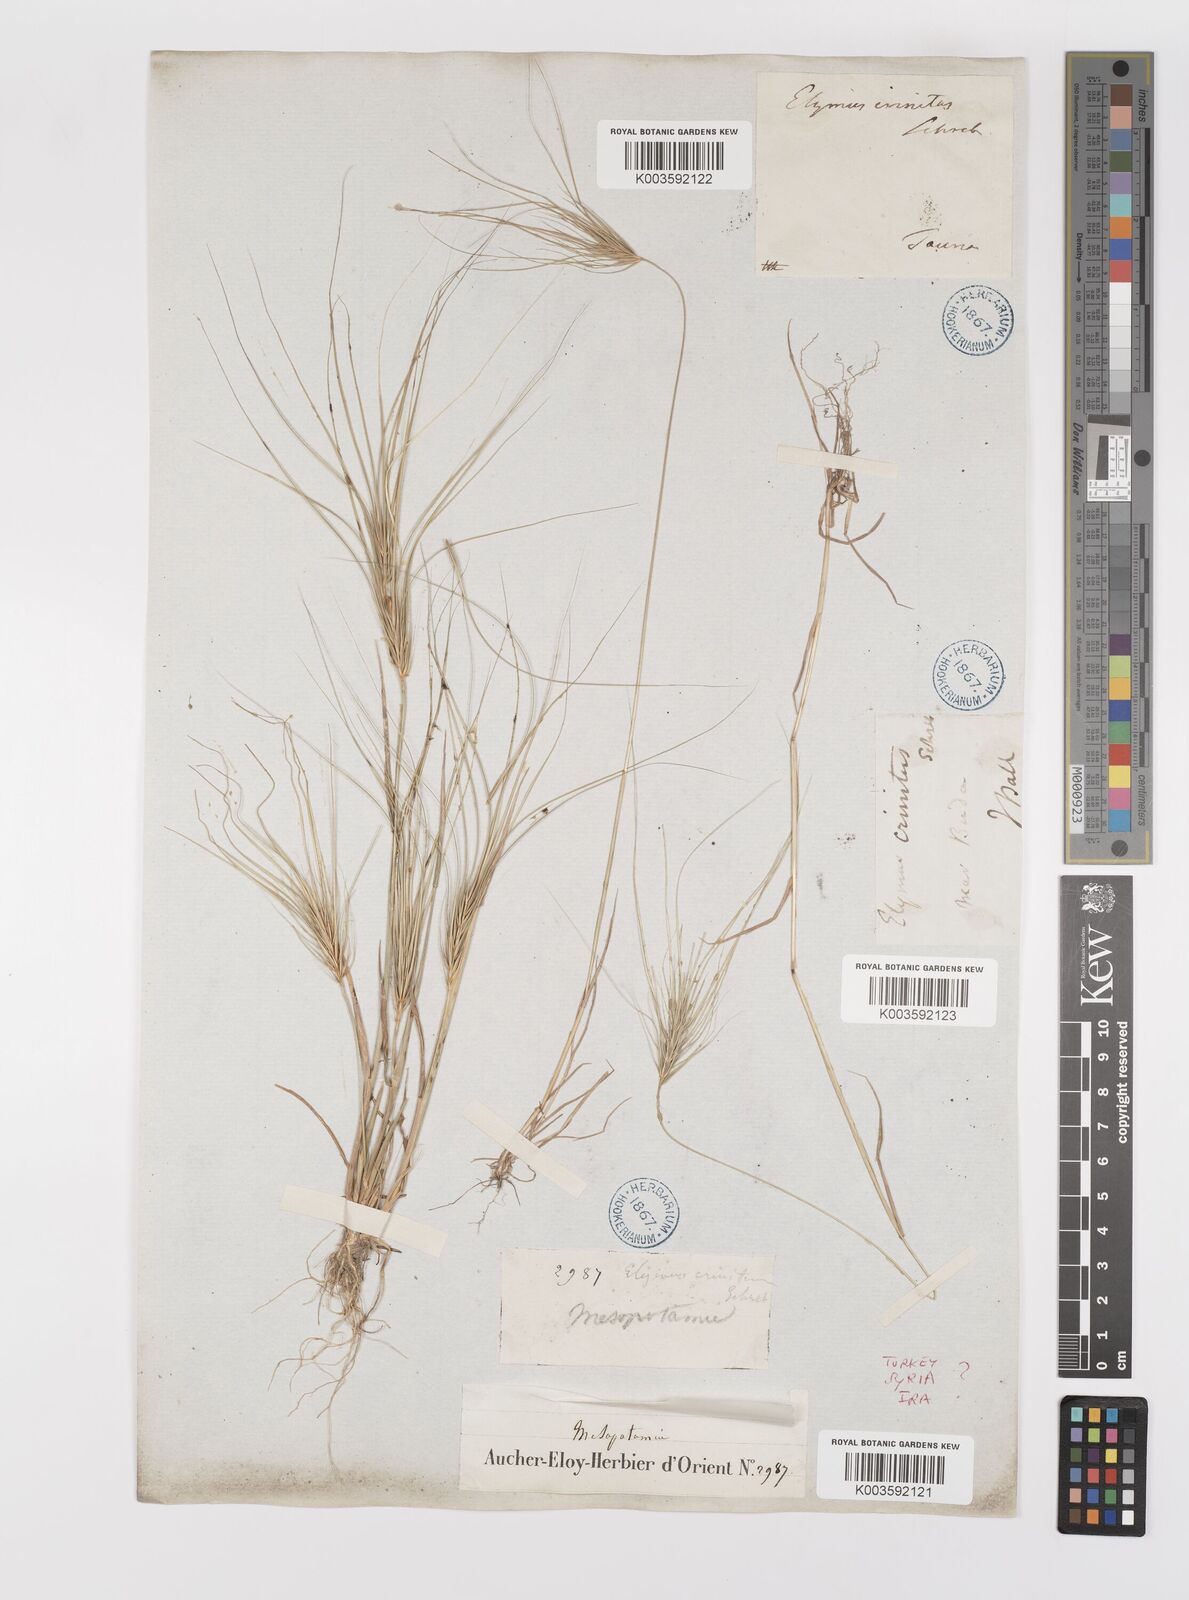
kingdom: Plantae
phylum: Tracheophyta
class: Liliopsida
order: Poales
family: Poaceae
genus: Taeniatherum
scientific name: Taeniatherum caput-medusae
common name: Medusahead
